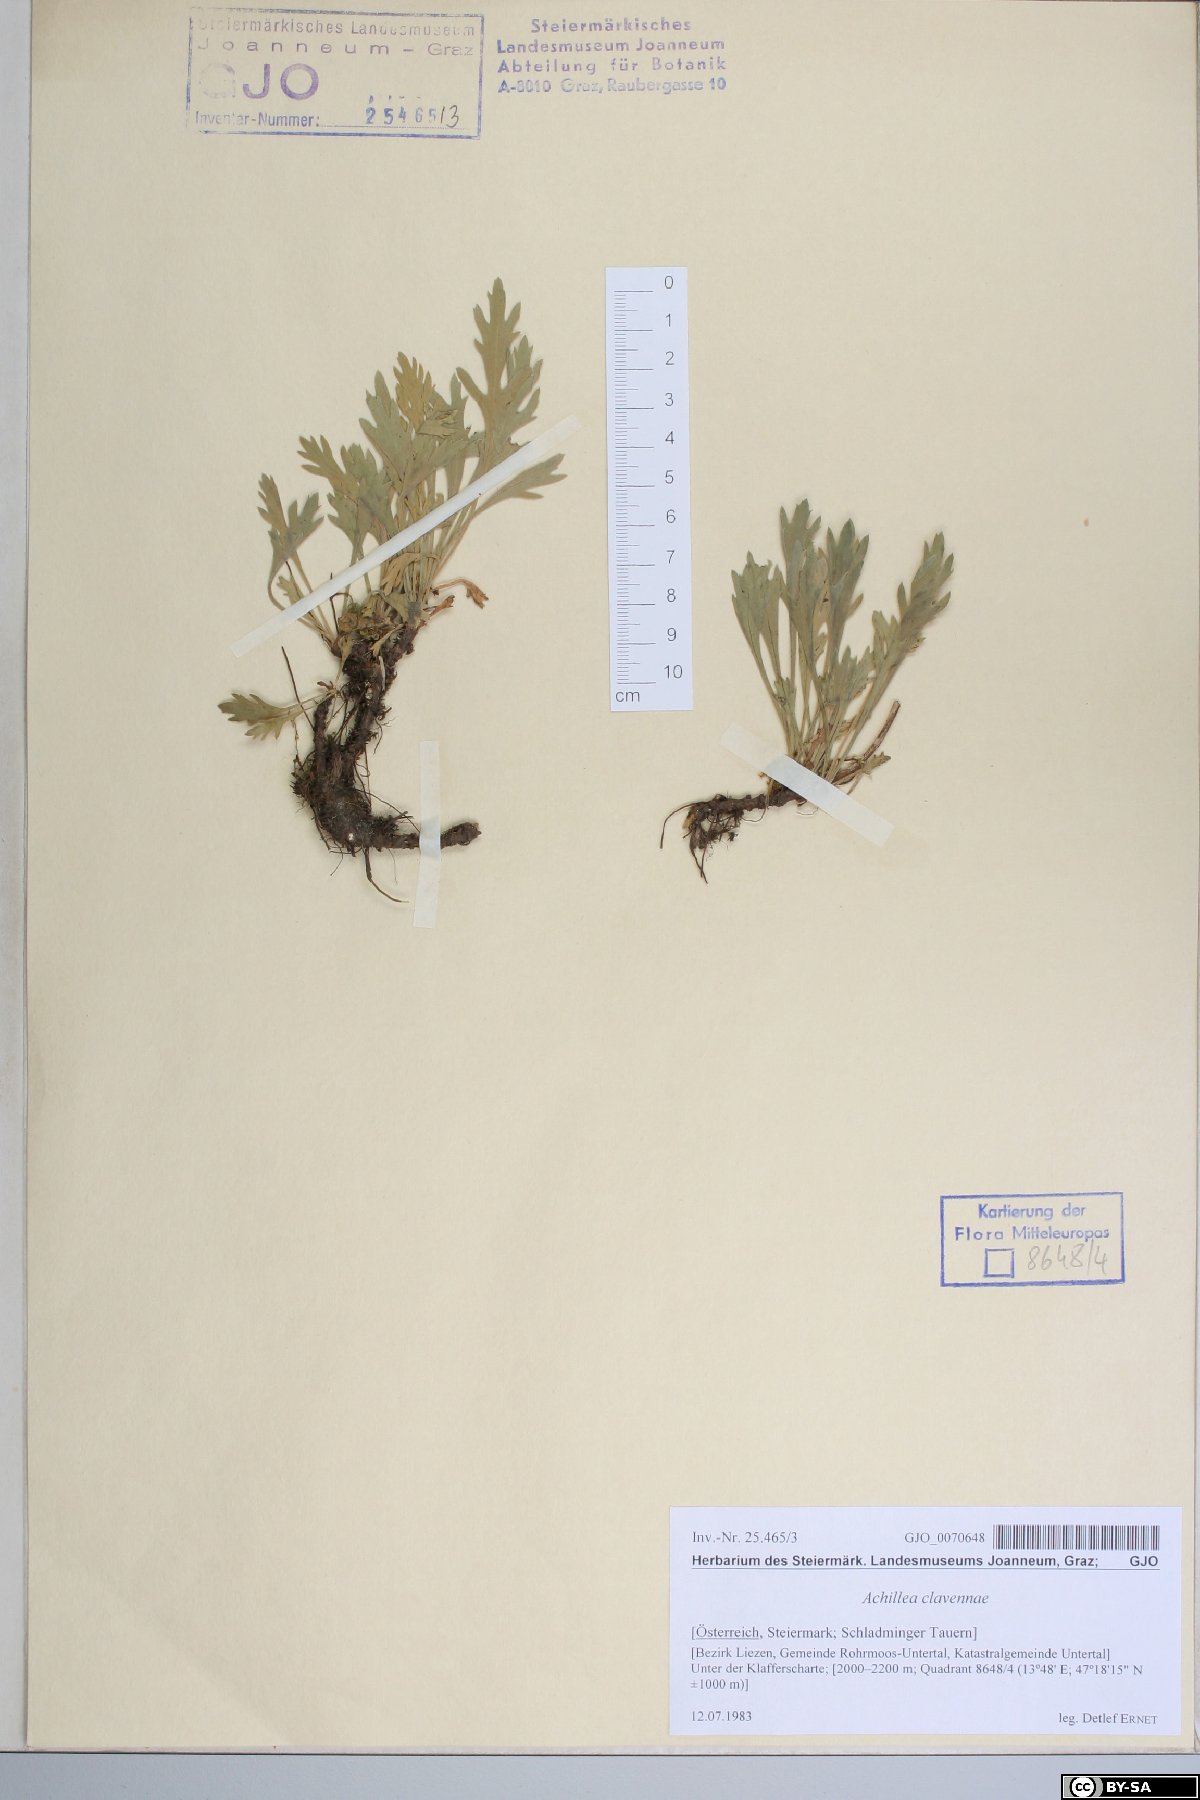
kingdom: Plantae
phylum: Tracheophyta
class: Magnoliopsida
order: Asterales
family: Asteraceae
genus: Achillea
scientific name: Achillea clavennae
